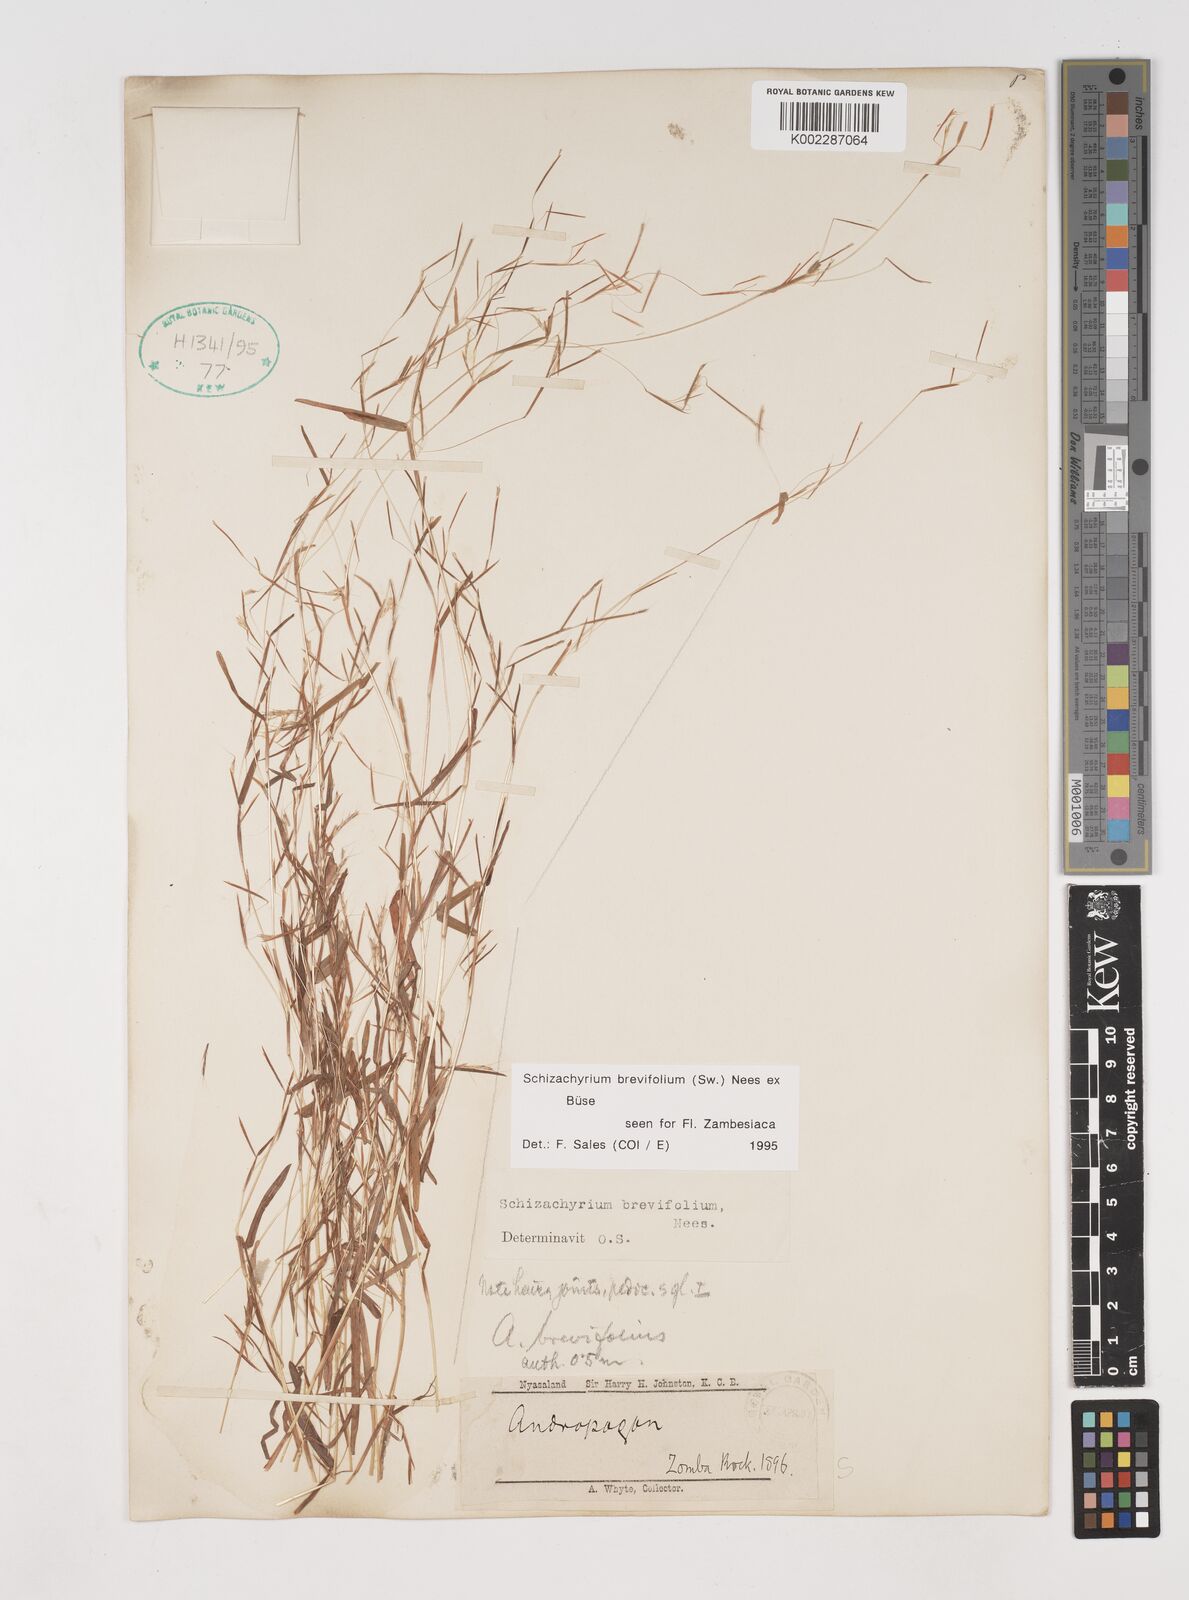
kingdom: Plantae
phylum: Tracheophyta
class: Liliopsida
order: Poales
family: Poaceae
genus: Schizachyrium
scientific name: Schizachyrium brevifolium
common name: Serillo dulce
